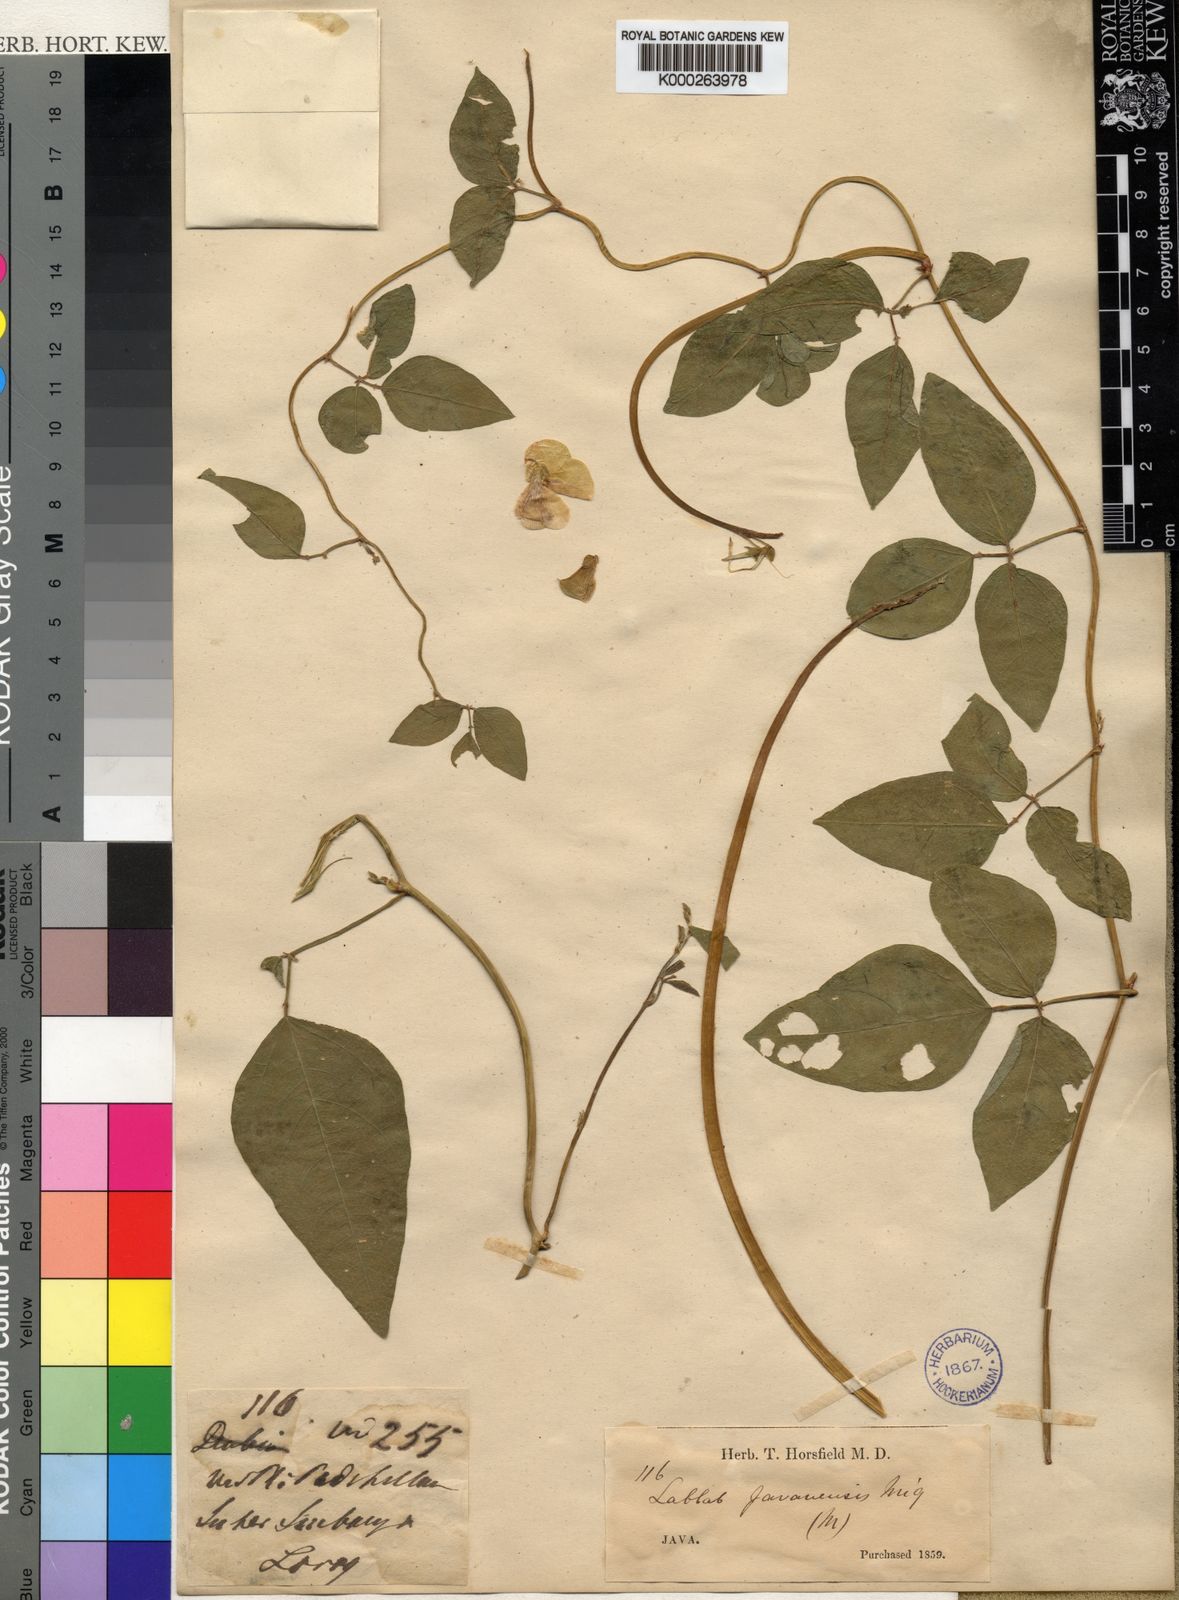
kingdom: Plantae
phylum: Tracheophyta
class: Magnoliopsida
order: Fabales
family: Fabaceae
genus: Vigna
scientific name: Vigna luteola
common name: Hairypod cowpea
